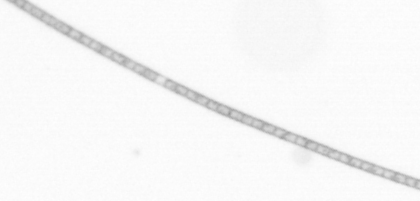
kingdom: Chromista
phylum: Ochrophyta
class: Bacillariophyceae
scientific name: Bacillariophyceae
